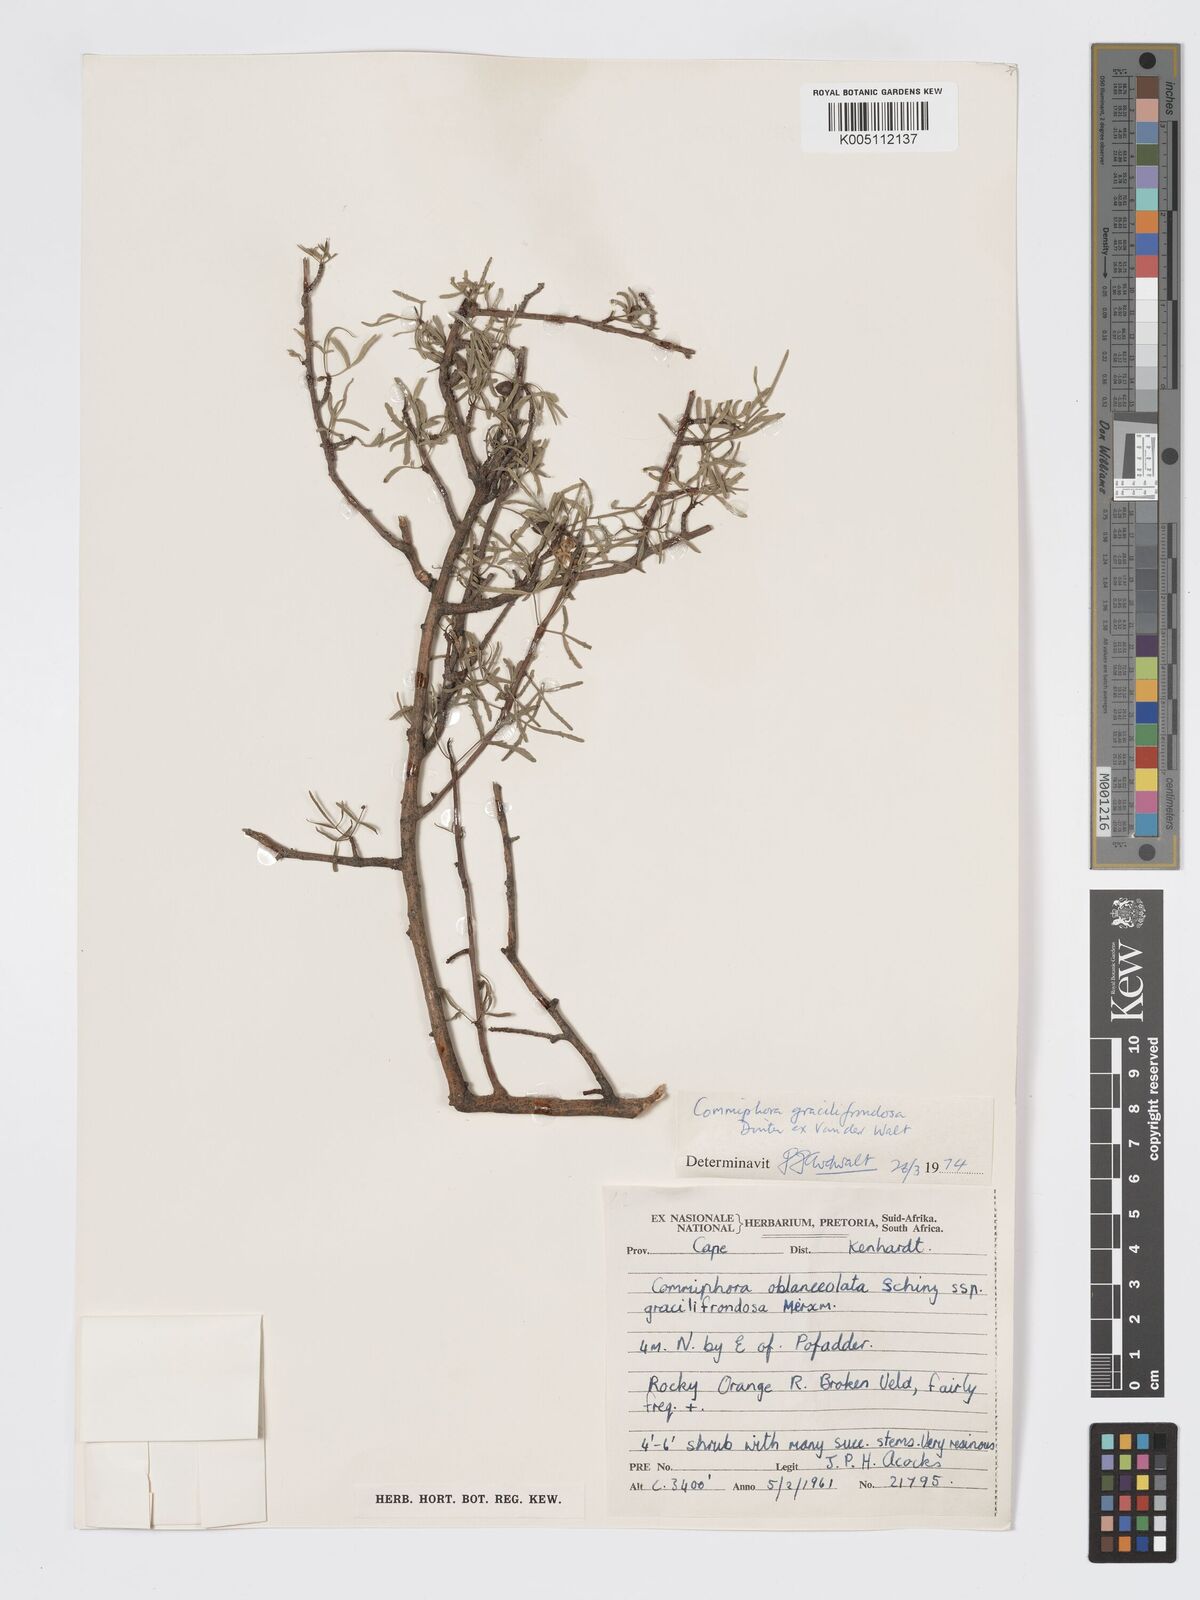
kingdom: Plantae
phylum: Tracheophyta
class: Magnoliopsida
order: Sapindales
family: Burseraceae
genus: Commiphora
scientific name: Commiphora gracilifrondosa
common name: Karee-leaved commiphora
